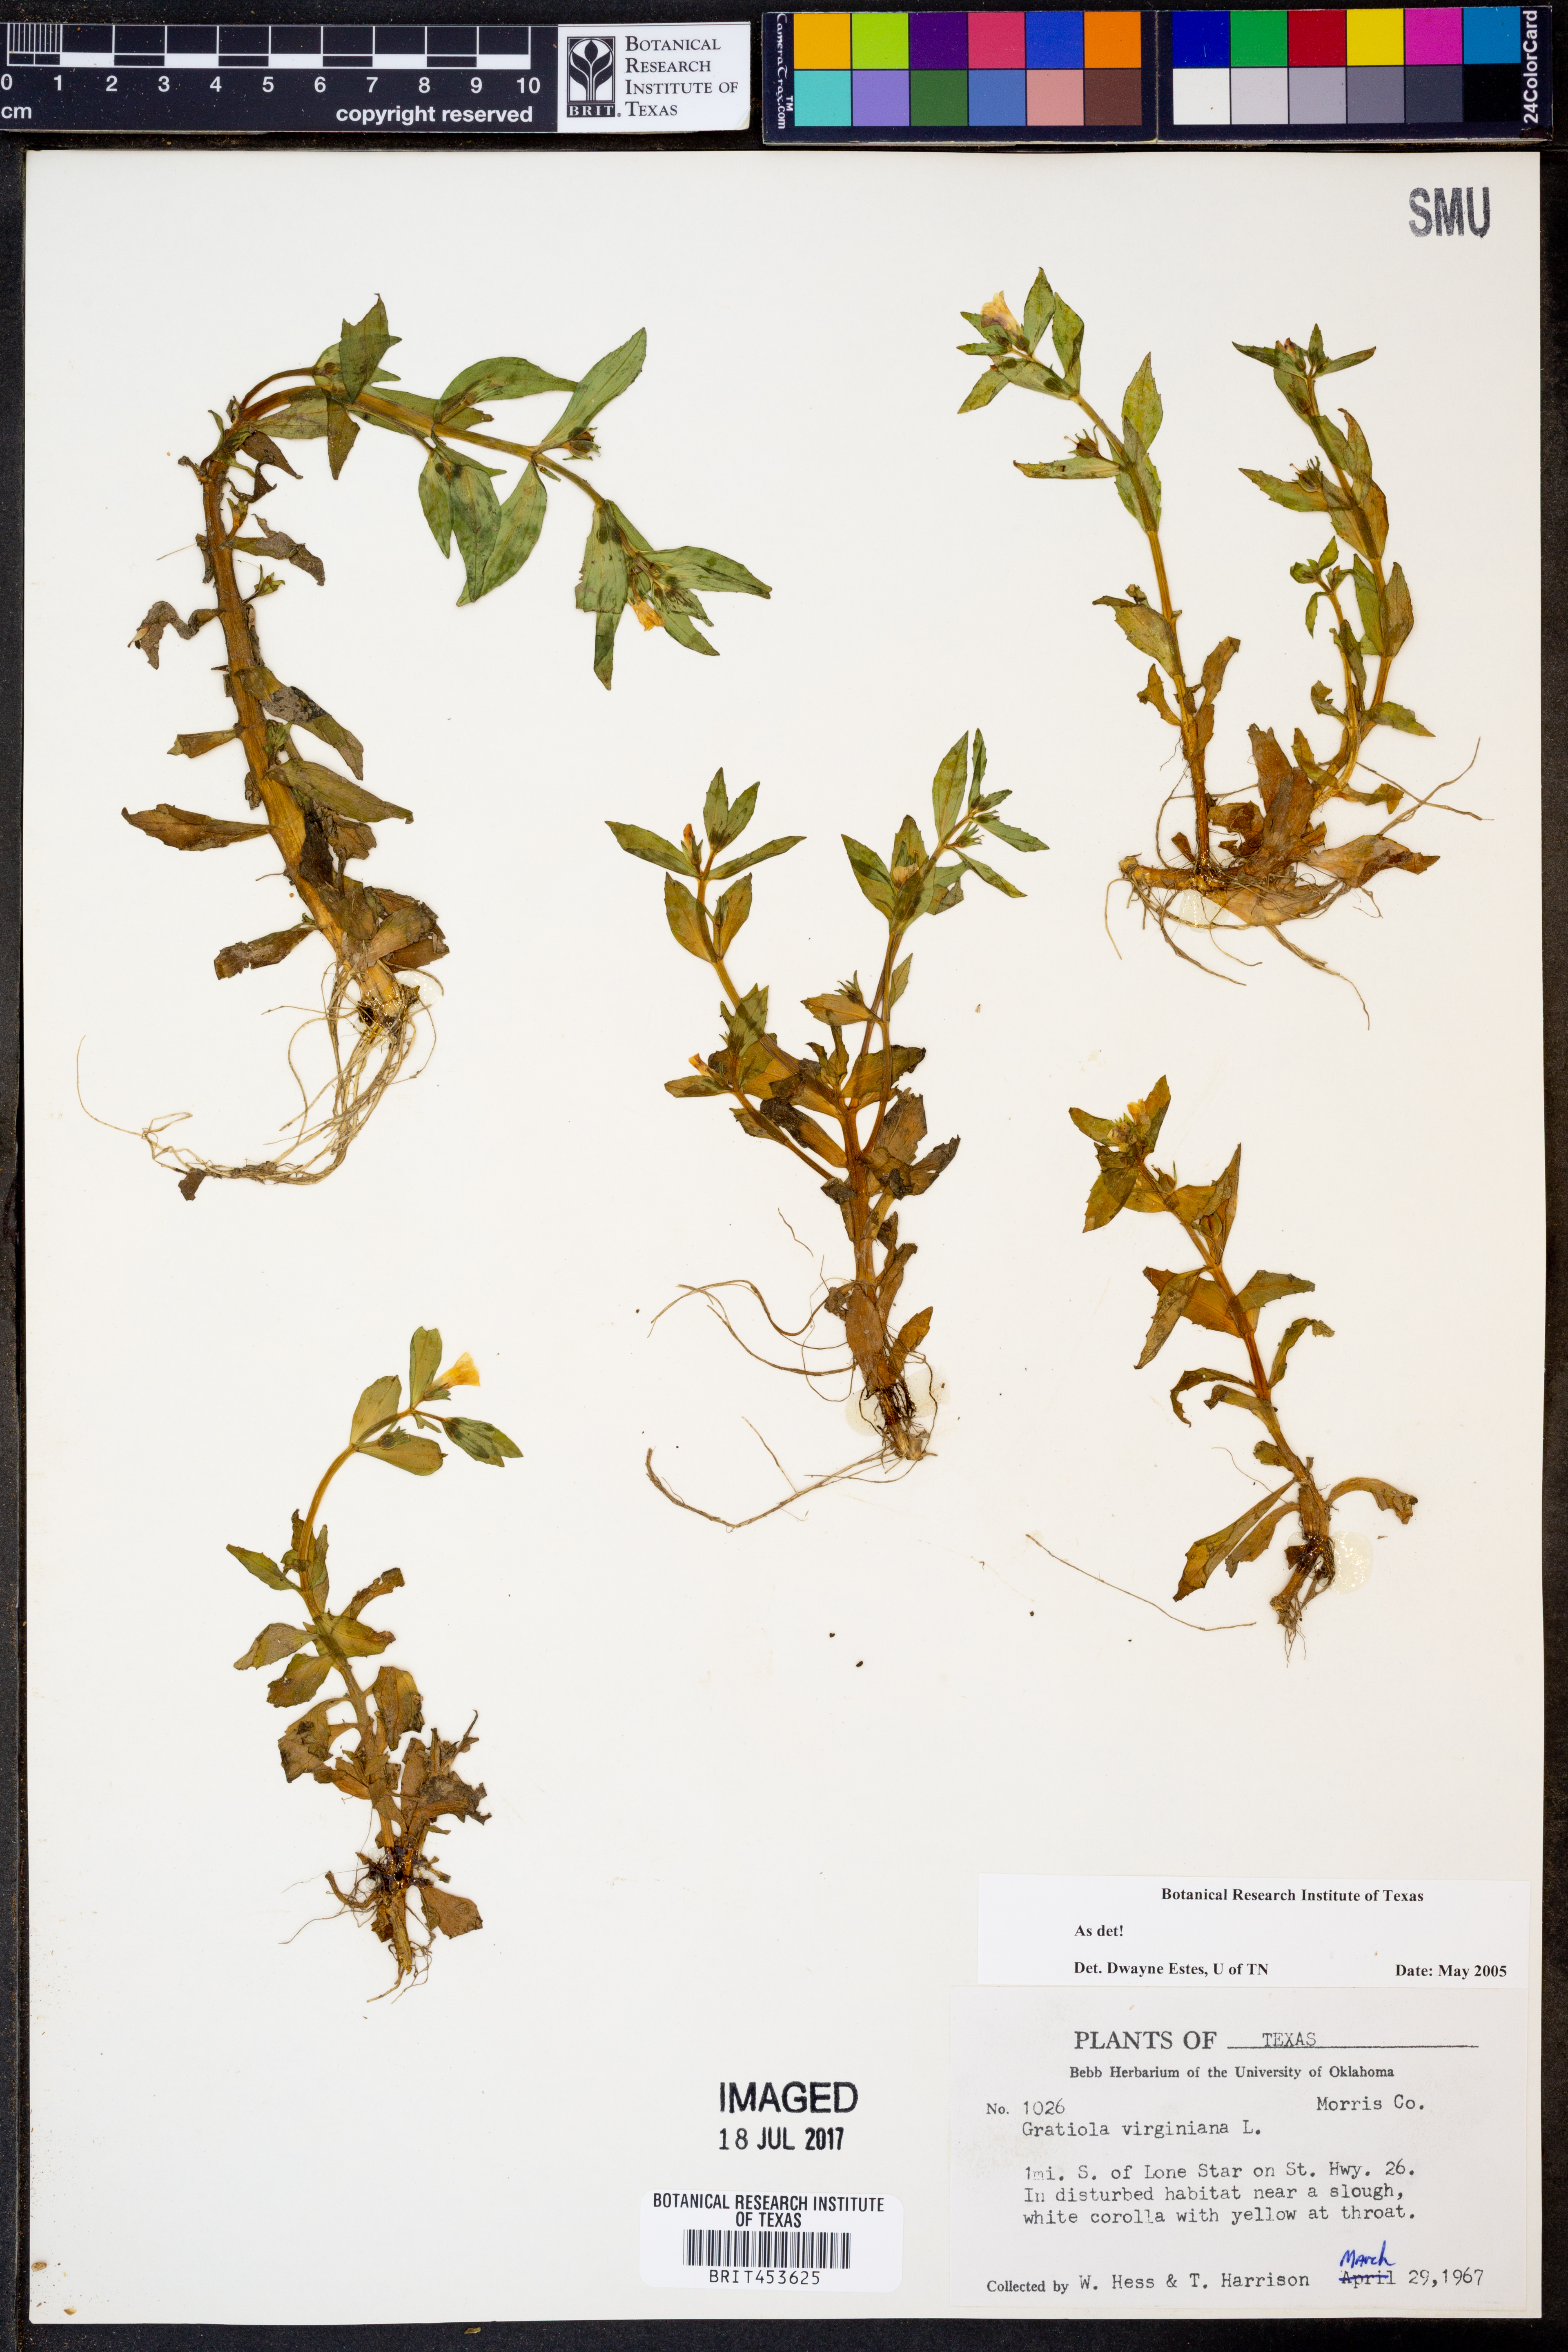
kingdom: Plantae
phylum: Tracheophyta
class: Magnoliopsida
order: Lamiales
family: Plantaginaceae
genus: Gratiola
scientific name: Gratiola virginiana
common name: Roundfruit hedgehyssop
